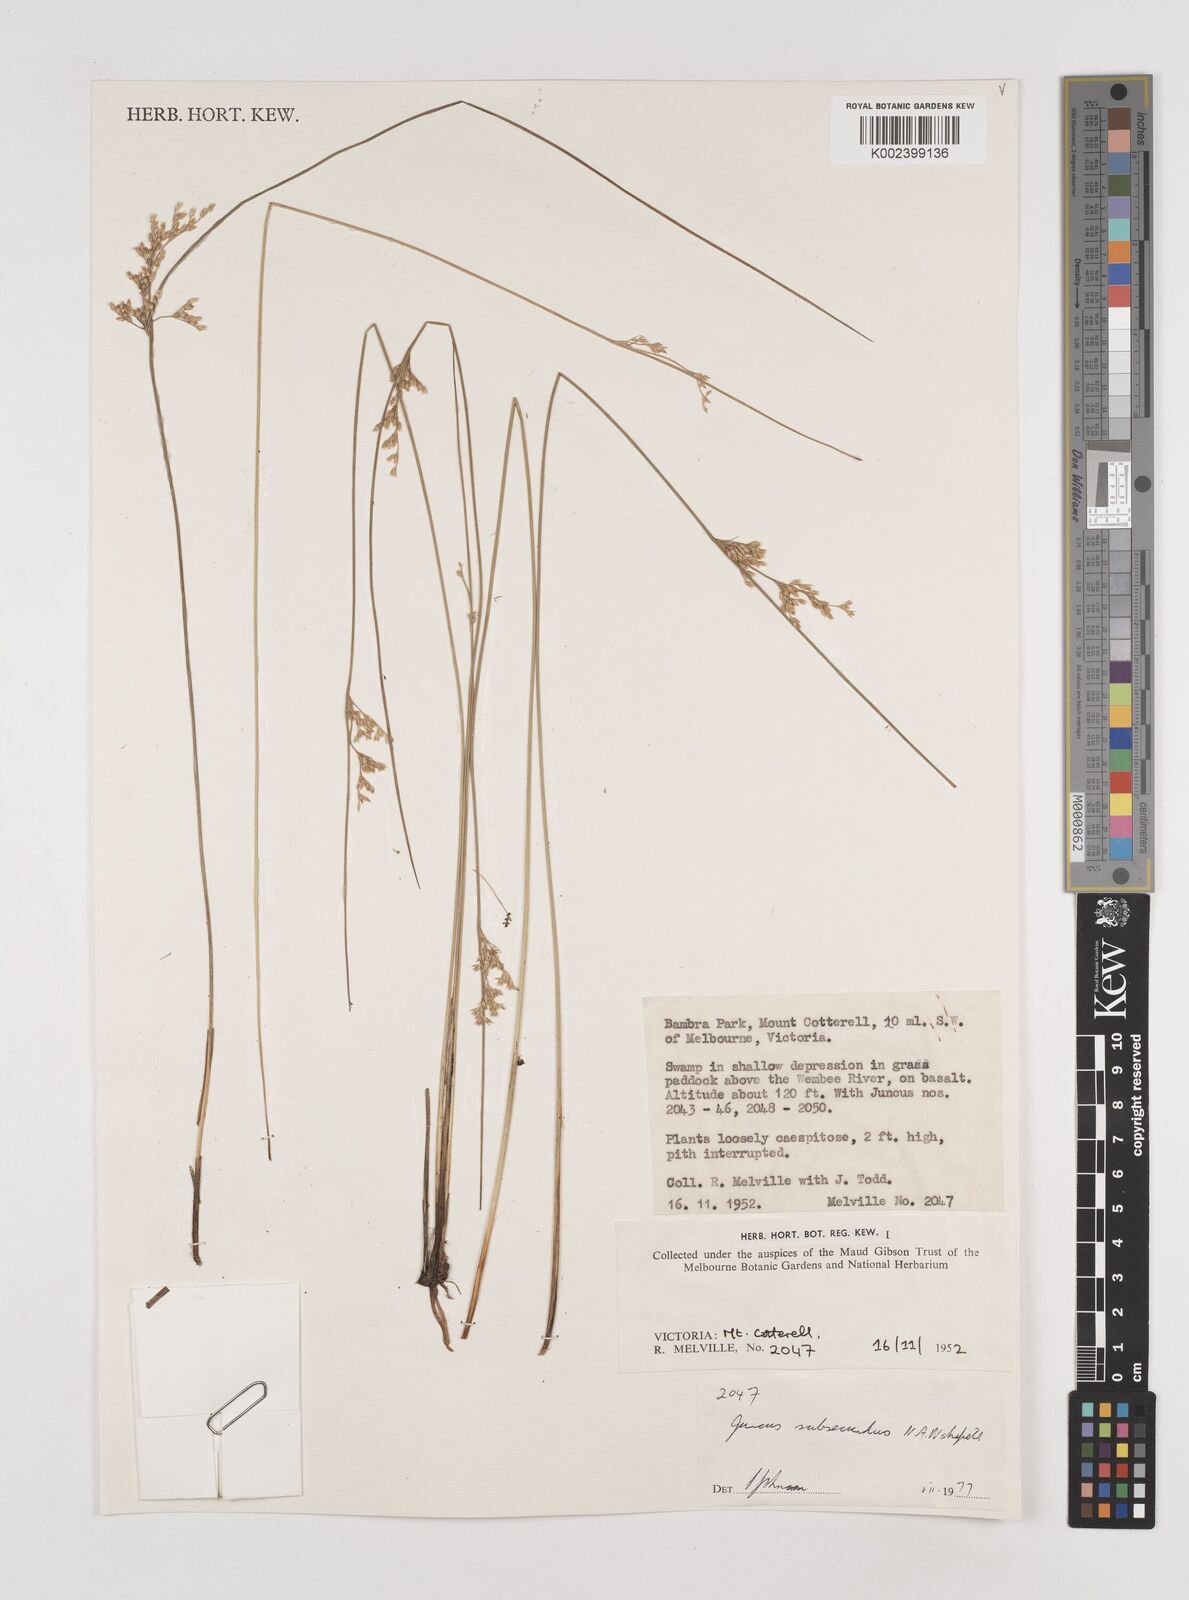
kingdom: Plantae
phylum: Tracheophyta
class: Liliopsida
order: Poales
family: Juncaceae
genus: Juncus
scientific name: Juncus subsecundus
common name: Fingered rush
